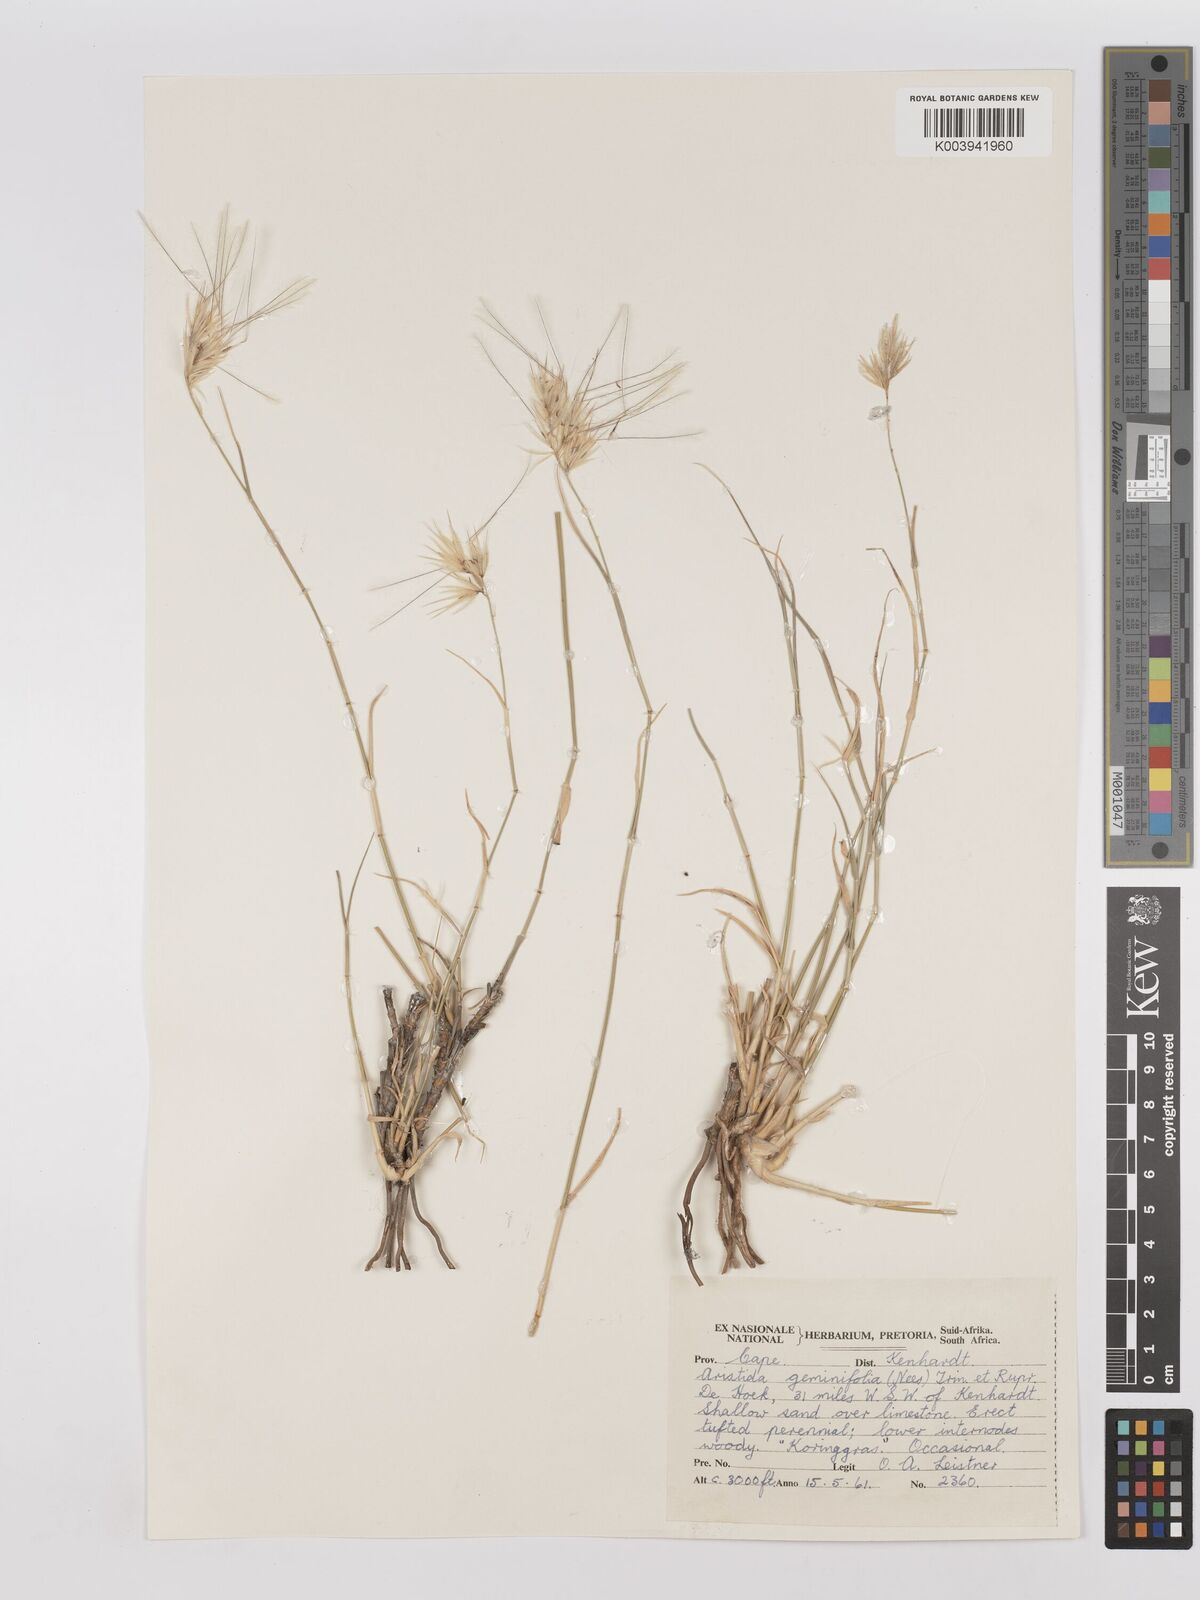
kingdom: Plantae
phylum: Tracheophyta
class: Liliopsida
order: Poales
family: Poaceae
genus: Stipagrostis
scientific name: Stipagrostis geminifolia
